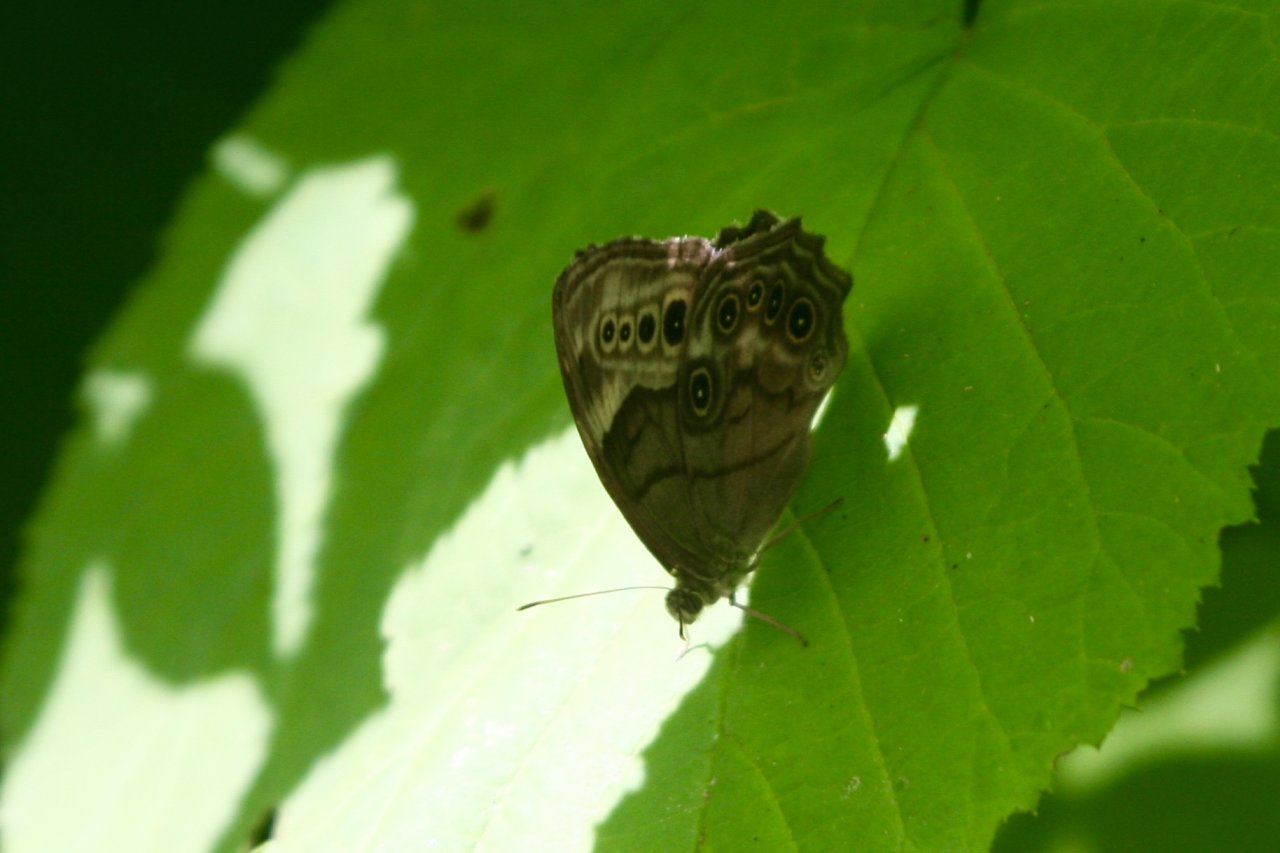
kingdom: Animalia
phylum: Arthropoda
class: Insecta
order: Lepidoptera
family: Nymphalidae
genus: Lethe
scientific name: Lethe anthedon
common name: Northern Pearly-Eye
